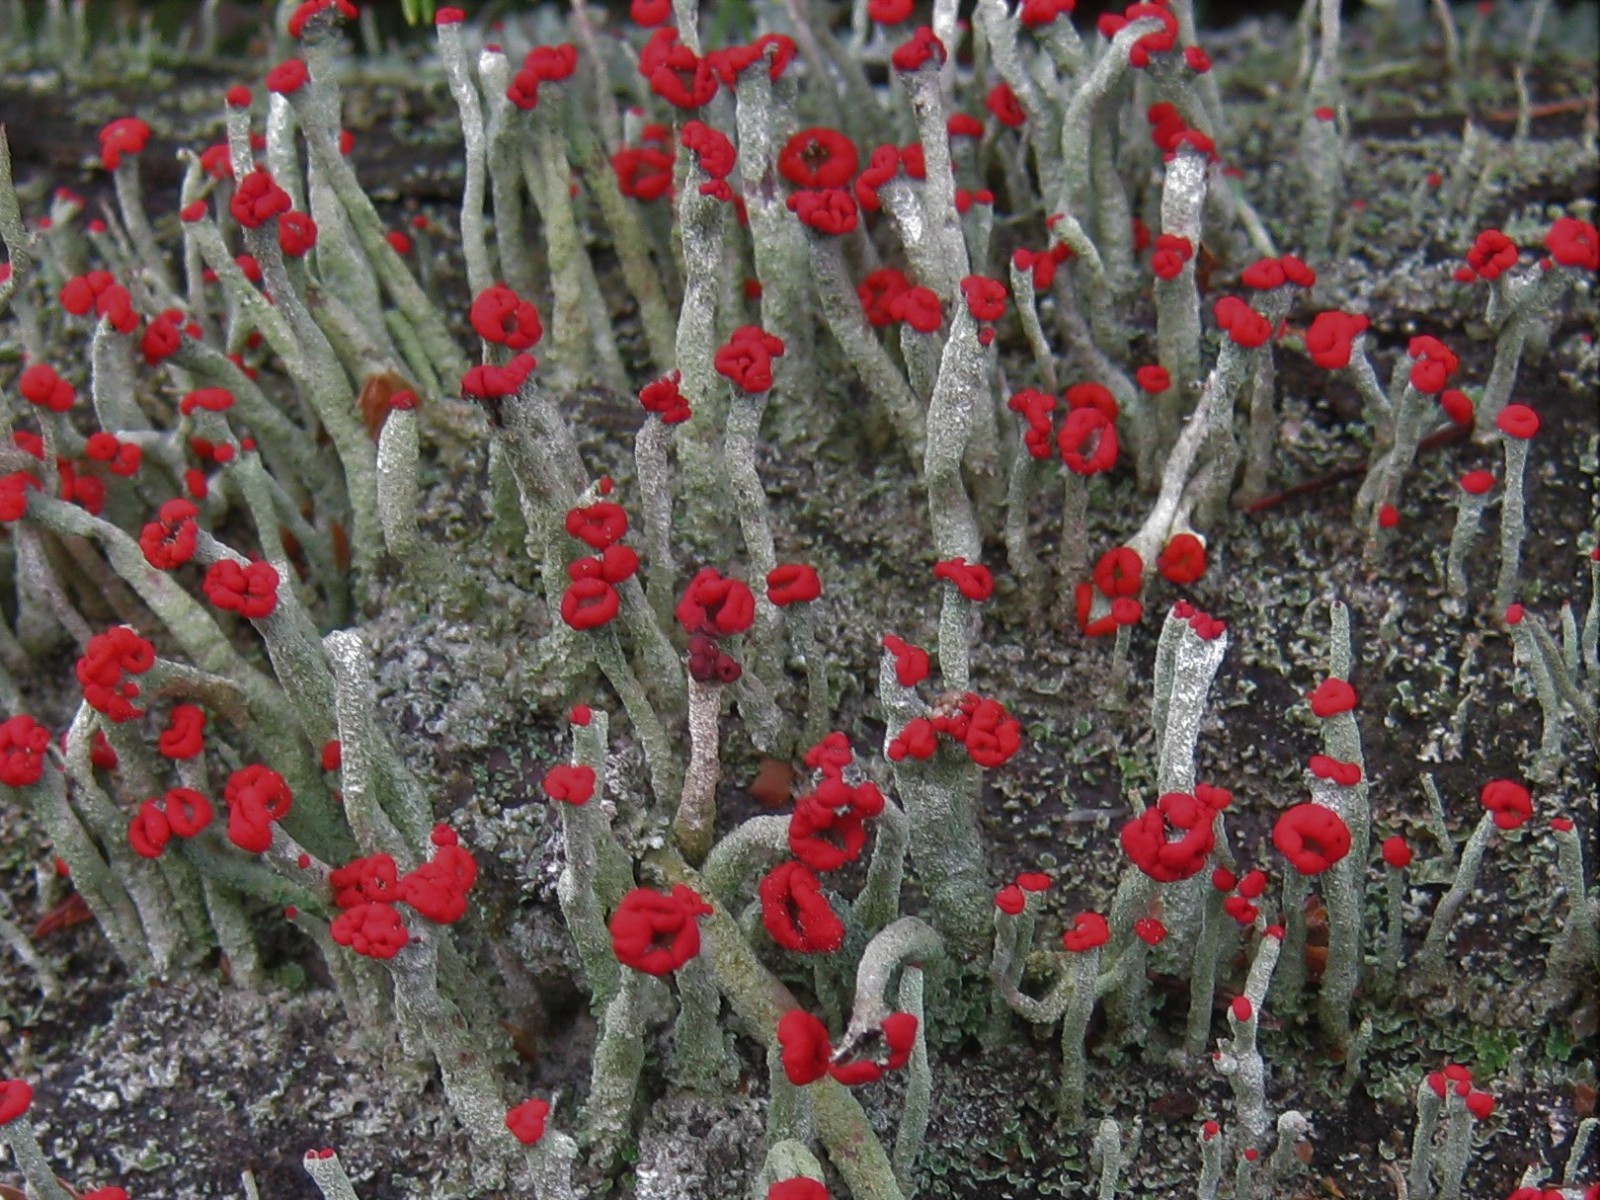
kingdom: Fungi
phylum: Ascomycota
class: Lecanoromycetes
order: Lecanorales
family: Cladoniaceae
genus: Cladonia
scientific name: Cladonia floerkeana
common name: lakrød bægerlav
